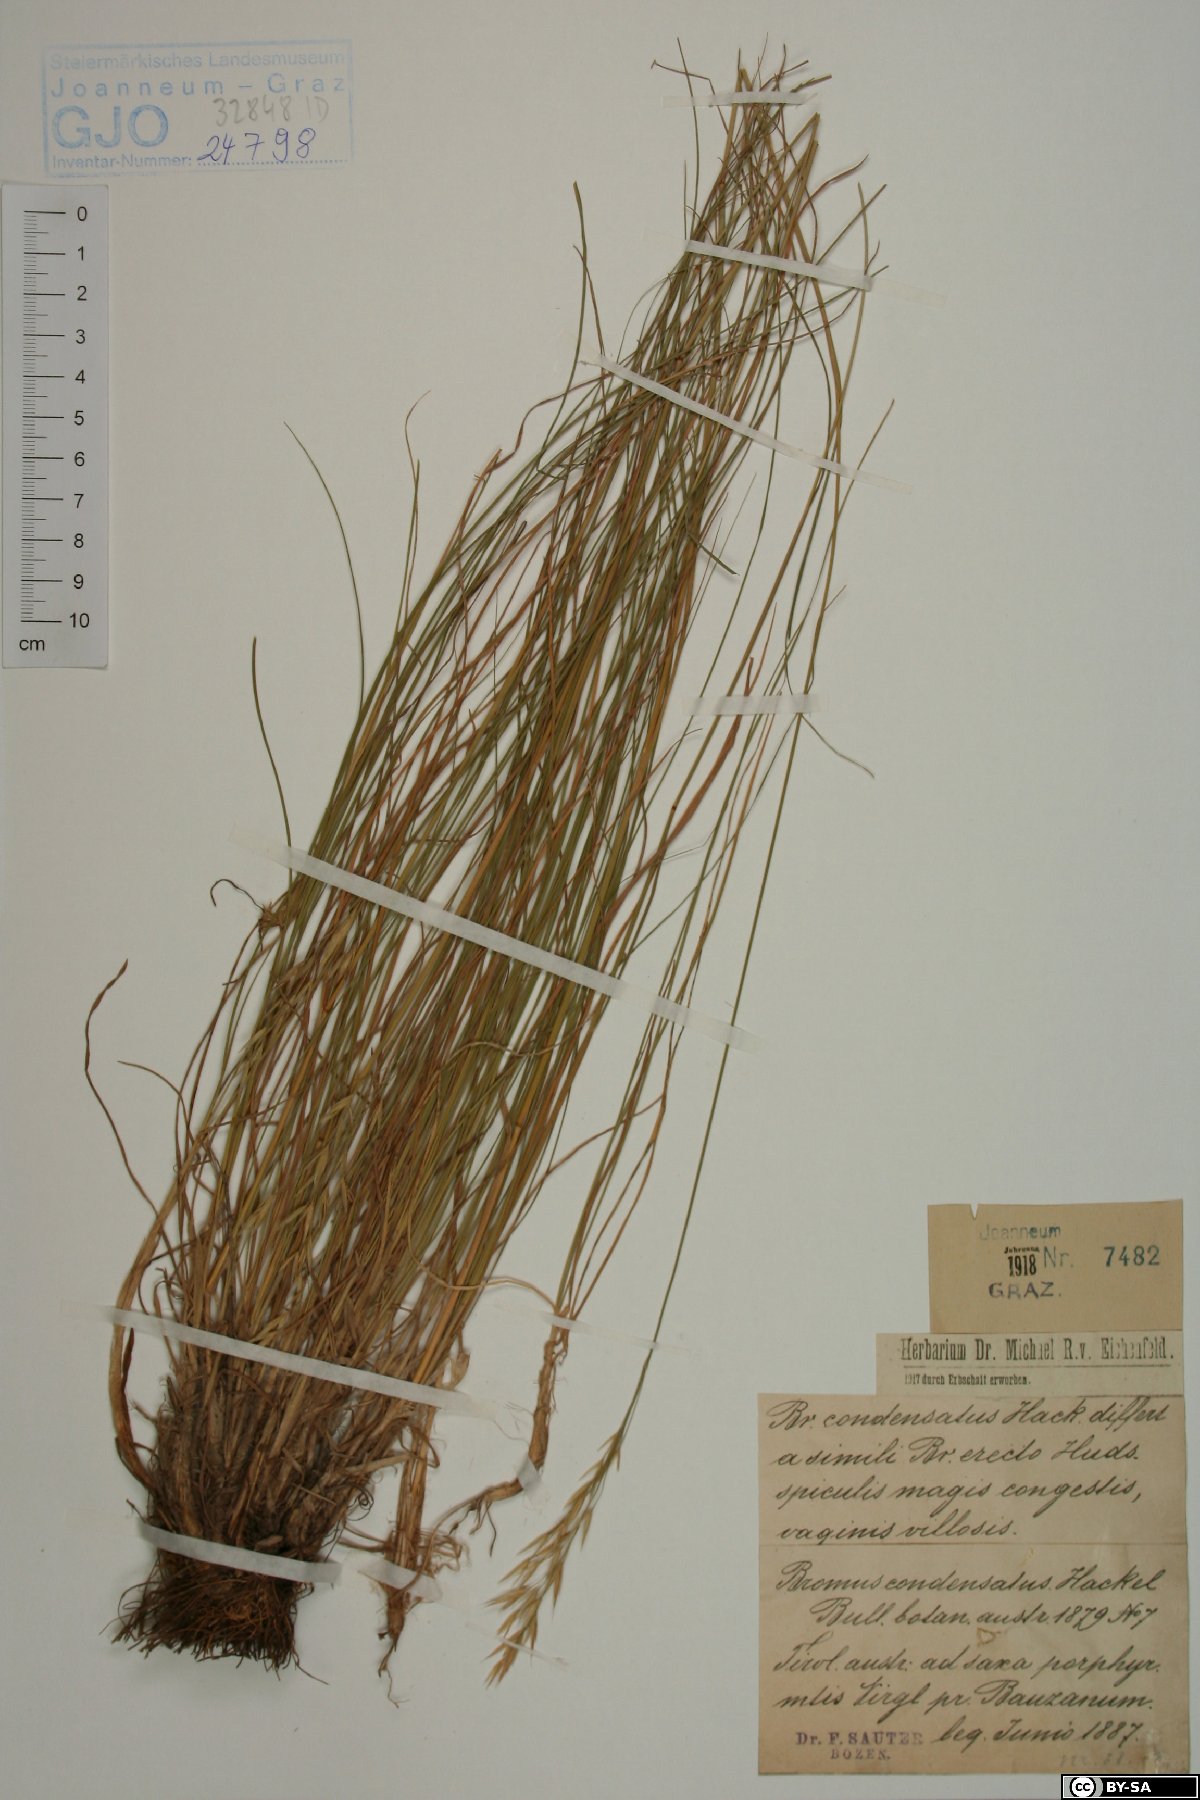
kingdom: Plantae
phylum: Tracheophyta
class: Liliopsida
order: Poales
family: Poaceae
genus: Bromus
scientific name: Bromus condensatus
